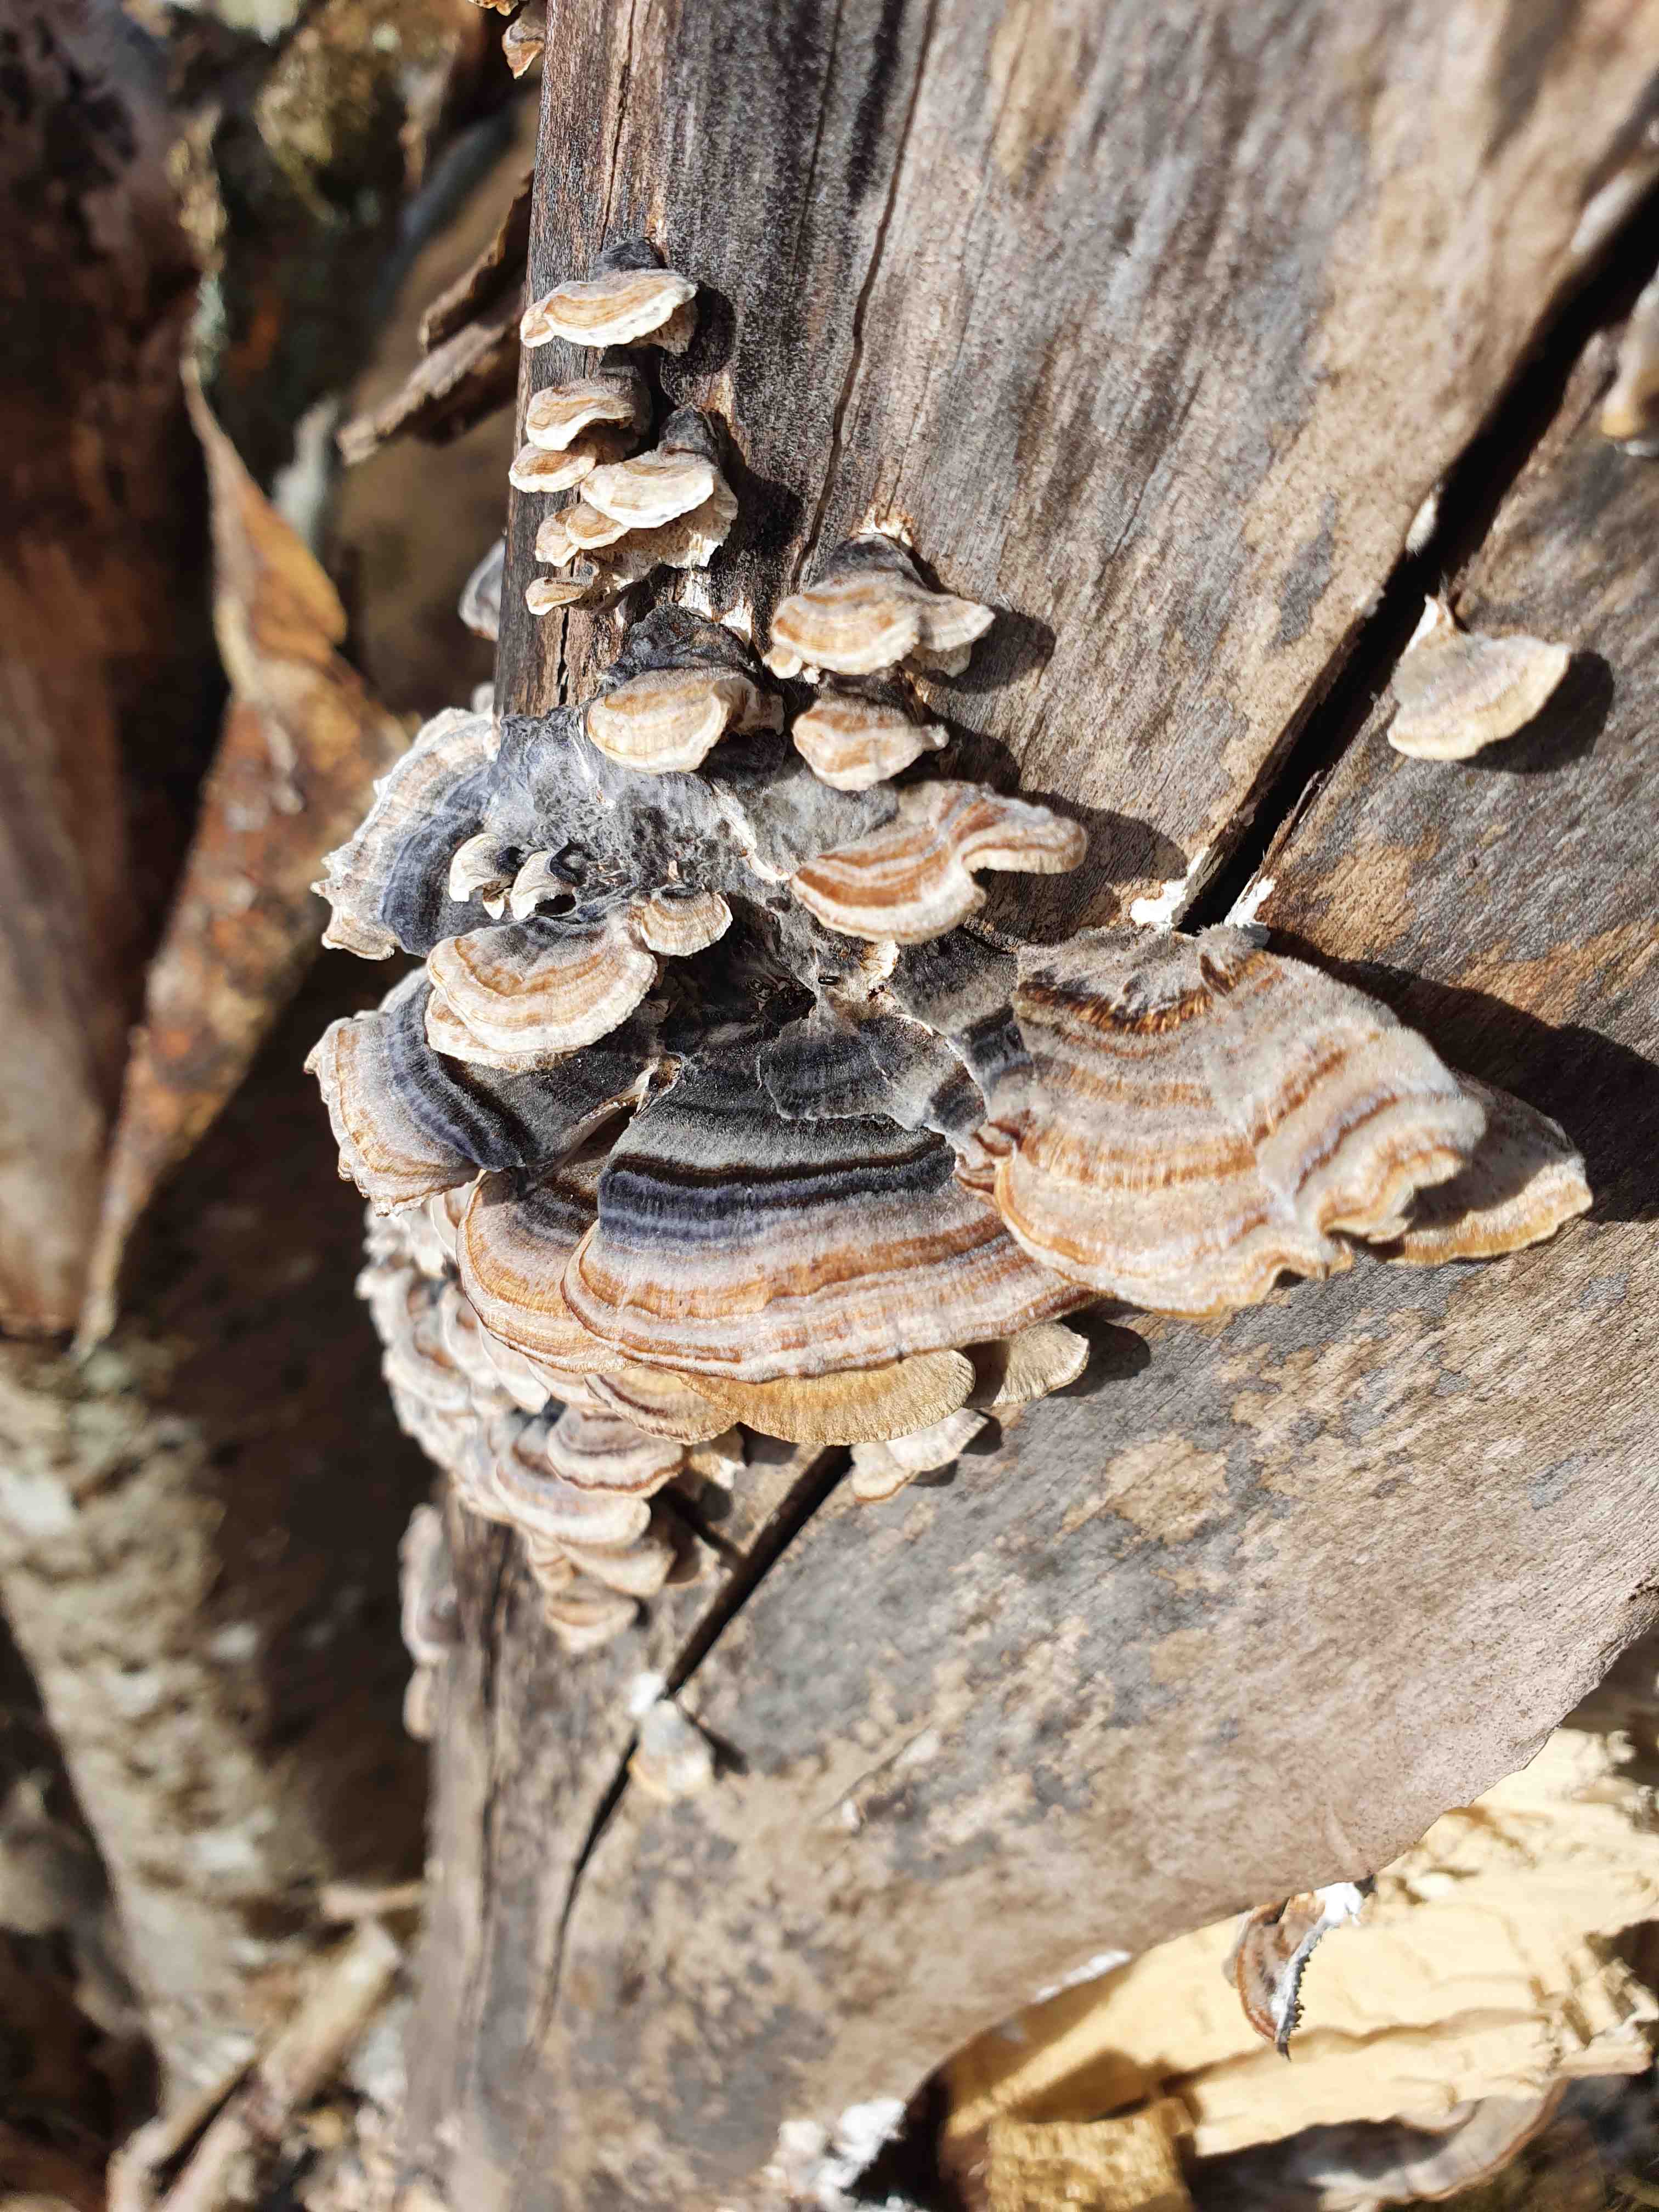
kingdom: Fungi
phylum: Basidiomycota
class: Agaricomycetes
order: Polyporales
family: Polyporaceae
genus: Trametes
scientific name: Trametes versicolor
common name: broget læderporesvamp
